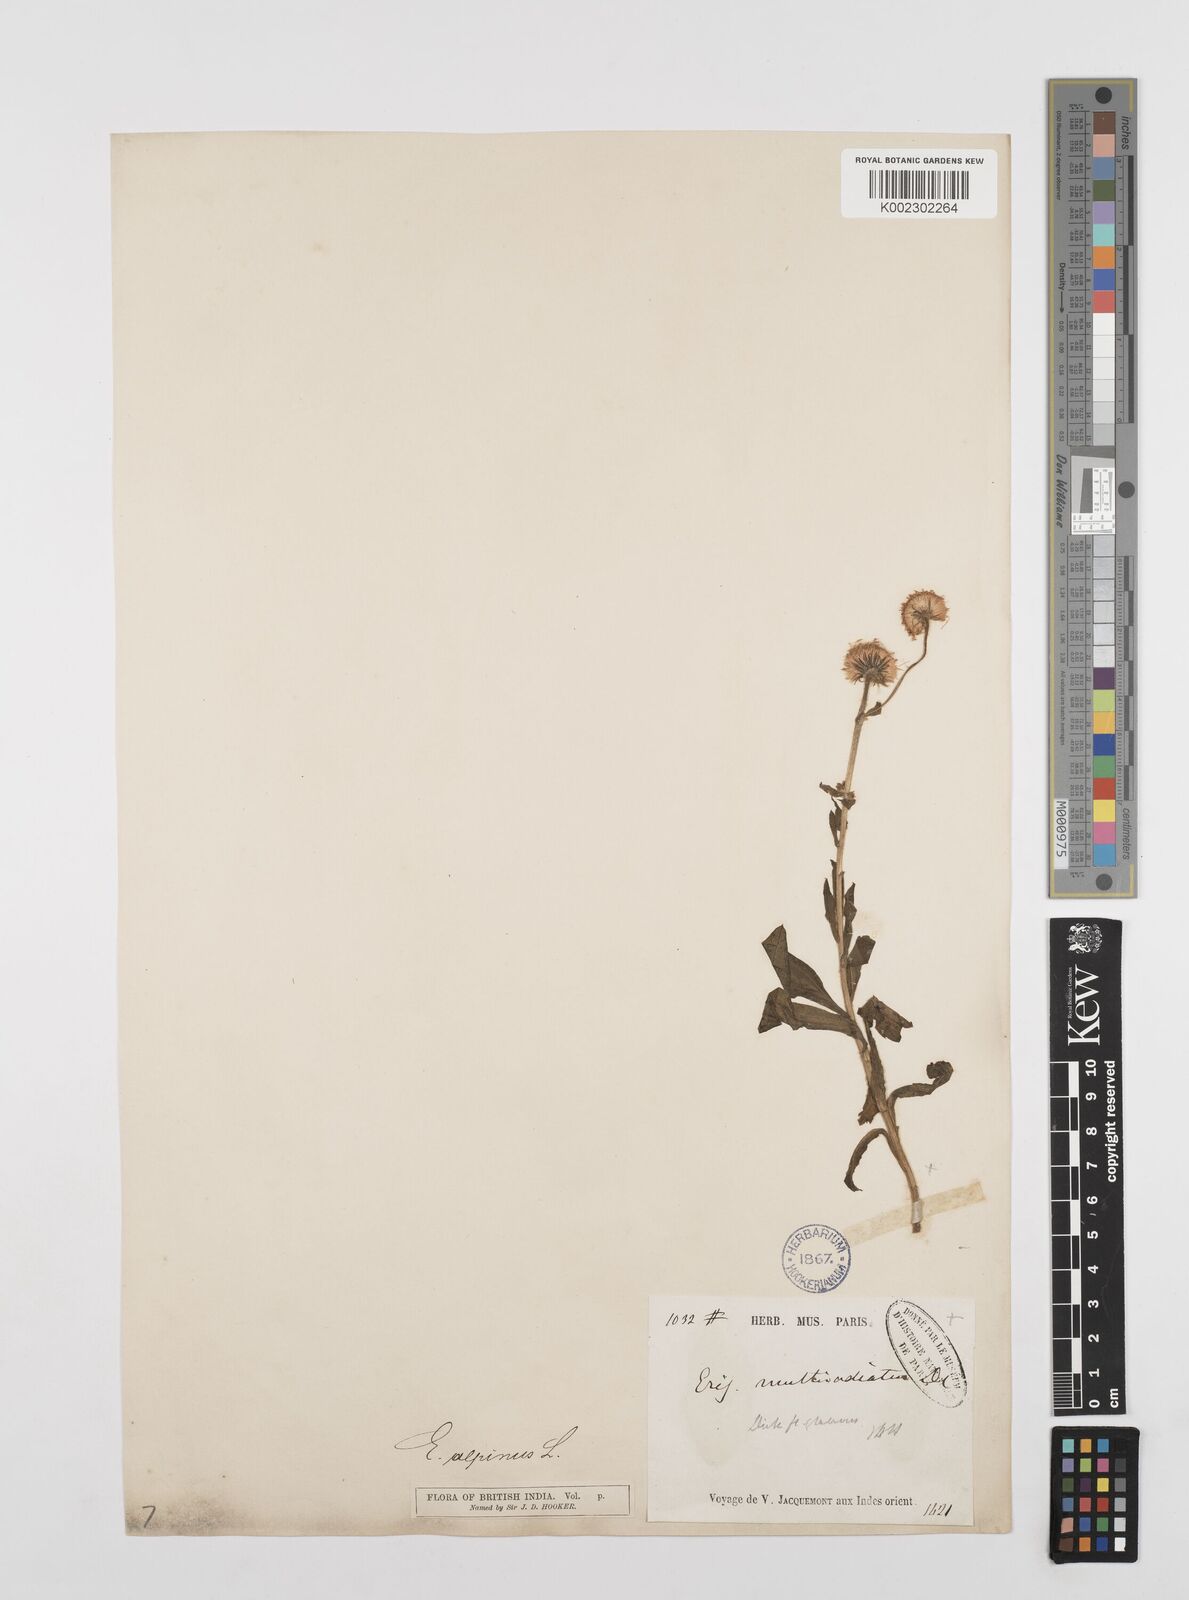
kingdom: Plantae
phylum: Tracheophyta
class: Magnoliopsida
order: Asterales
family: Asteraceae
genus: Erigeron
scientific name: Erigeron multiradiatus
